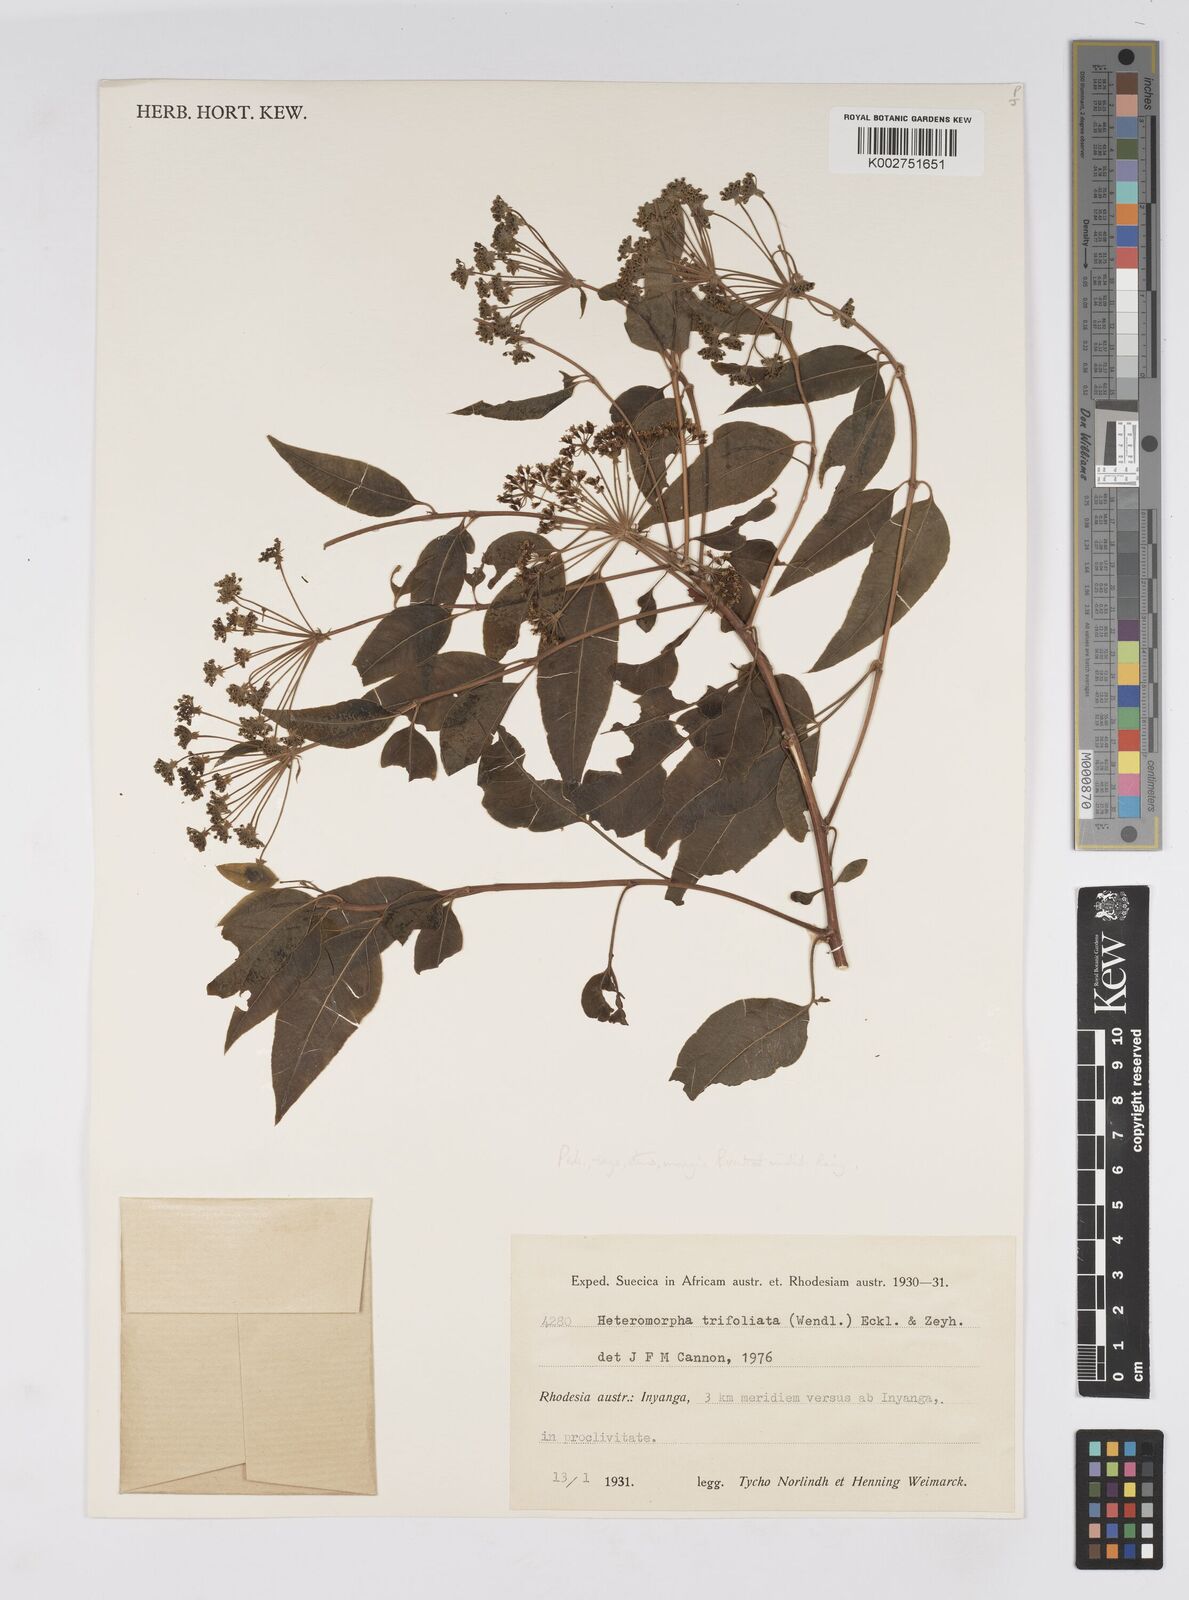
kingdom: Plantae
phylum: Tracheophyta
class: Magnoliopsida
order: Apiales
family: Apiaceae
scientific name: Apiaceae
